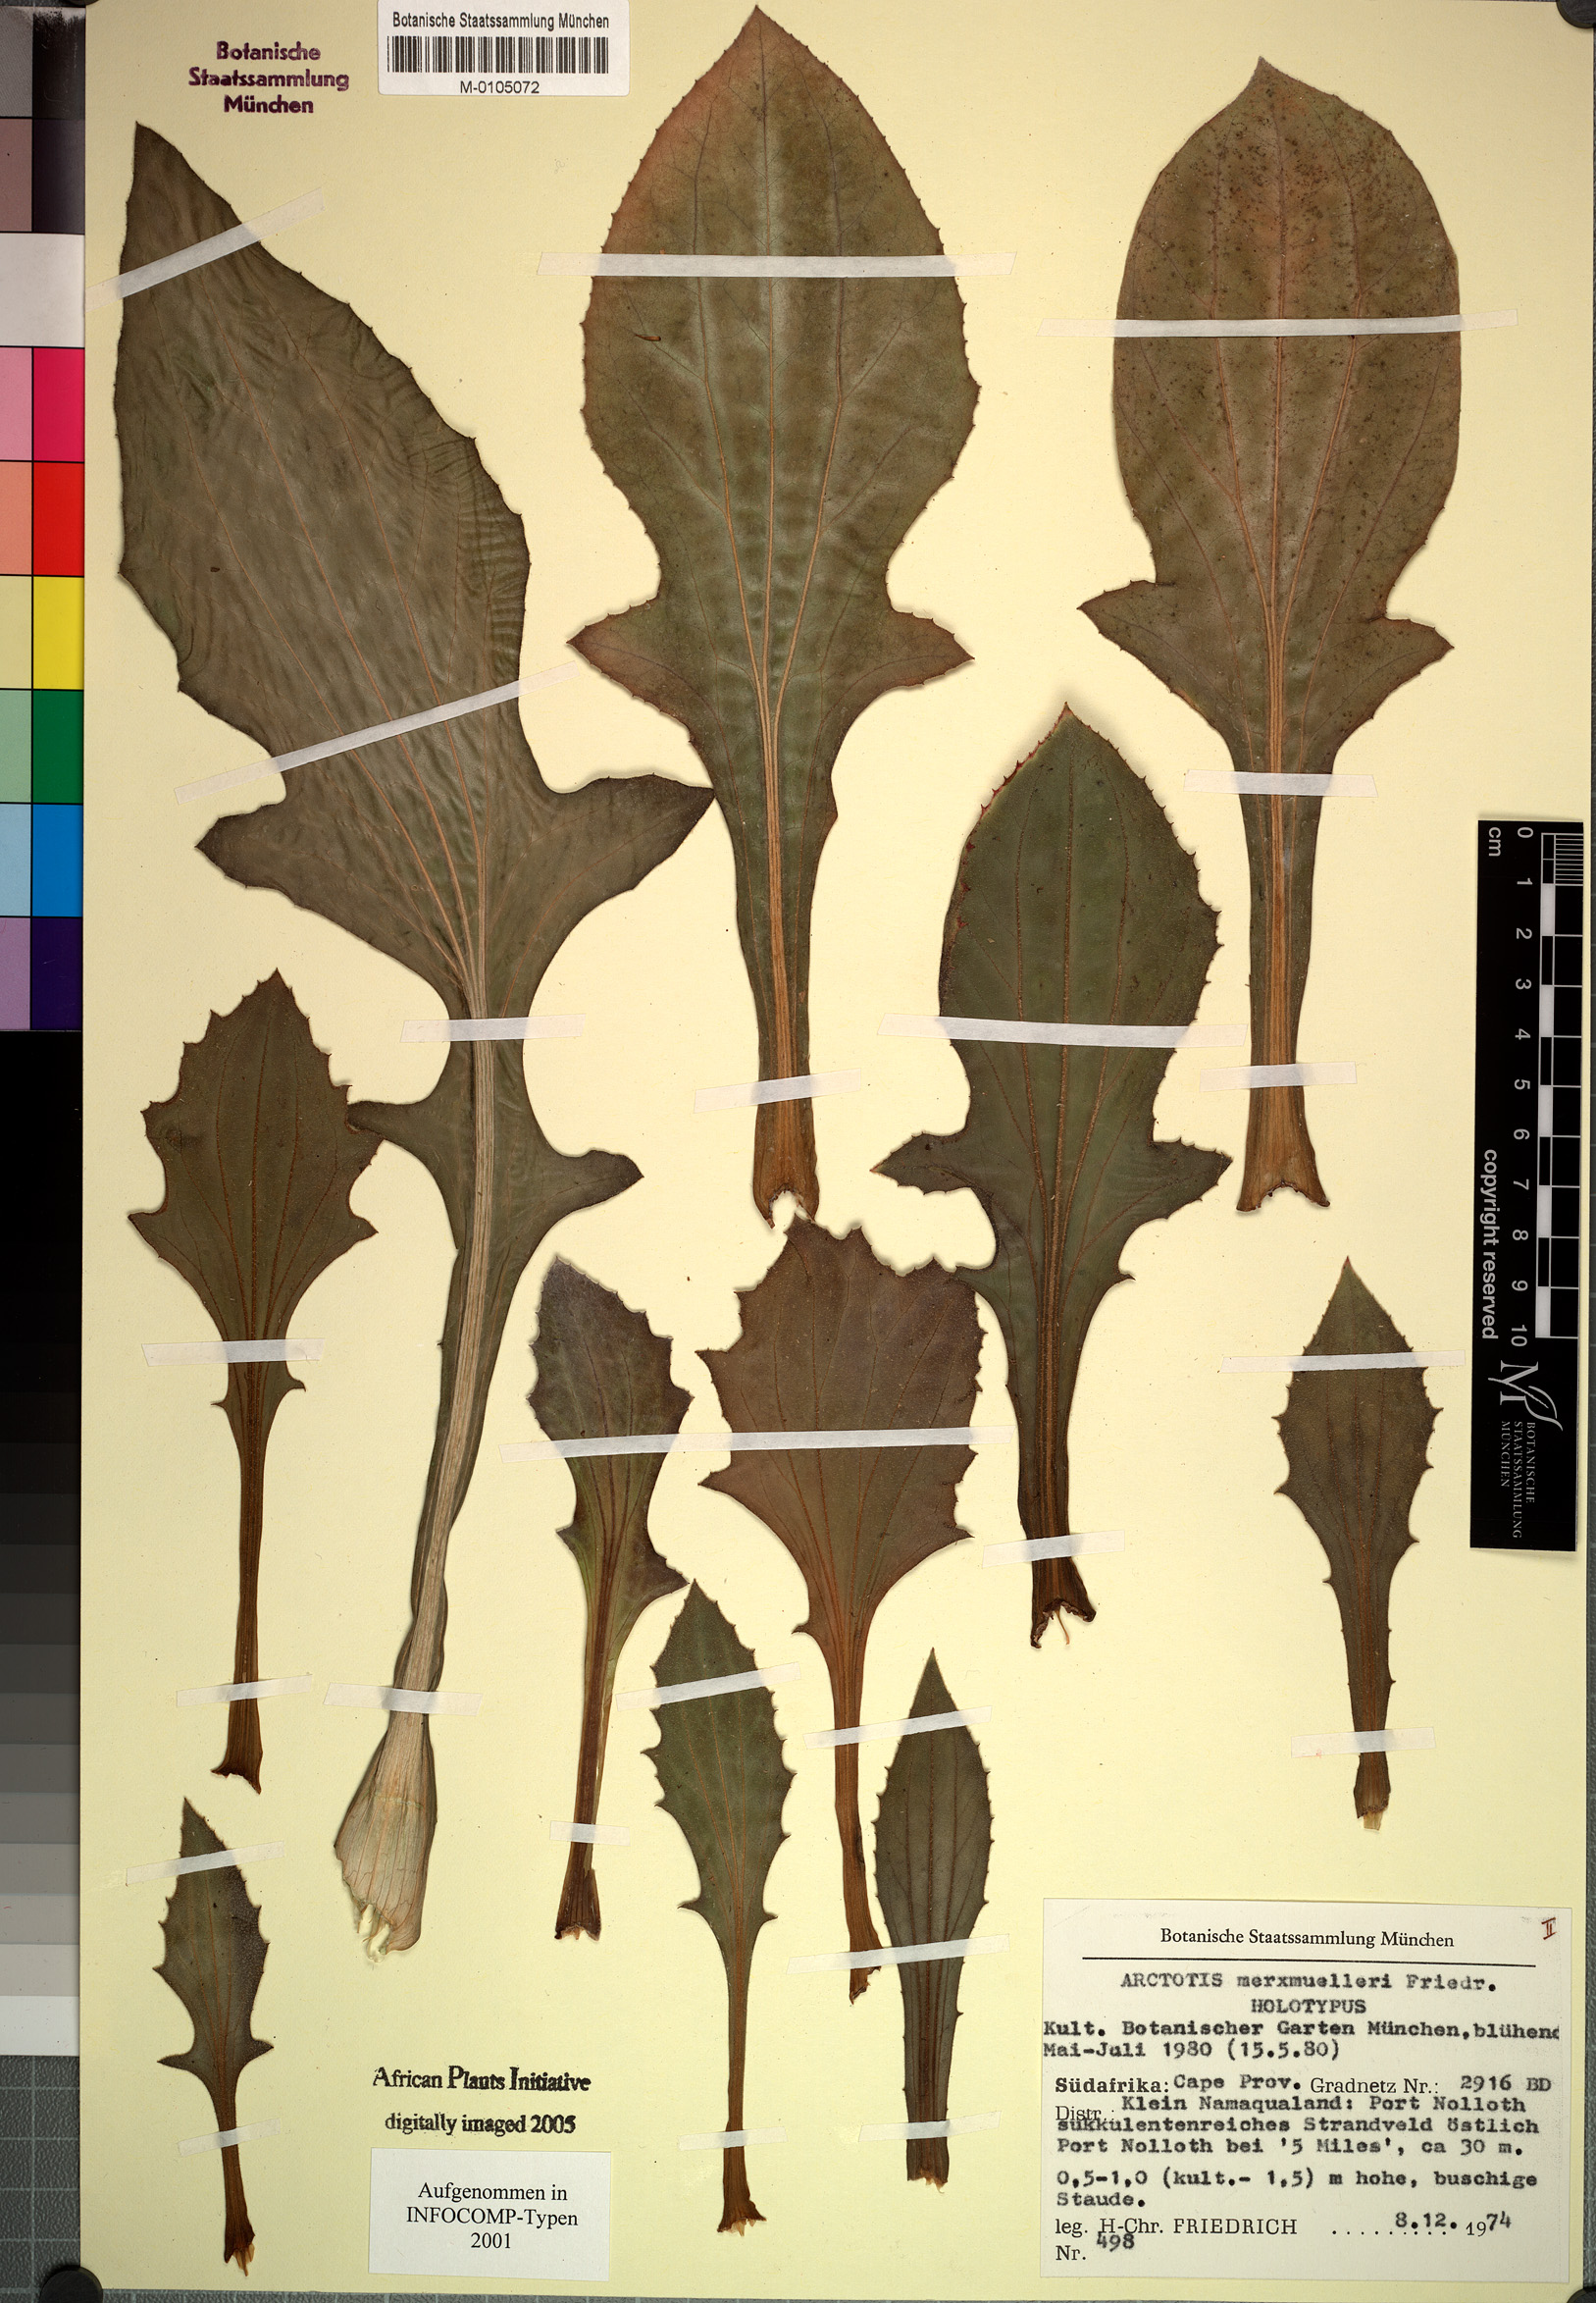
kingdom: Plantae
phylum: Tracheophyta
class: Magnoliopsida
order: Asterales
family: Asteraceae
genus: Arctotis
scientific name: Arctotis decurrens
